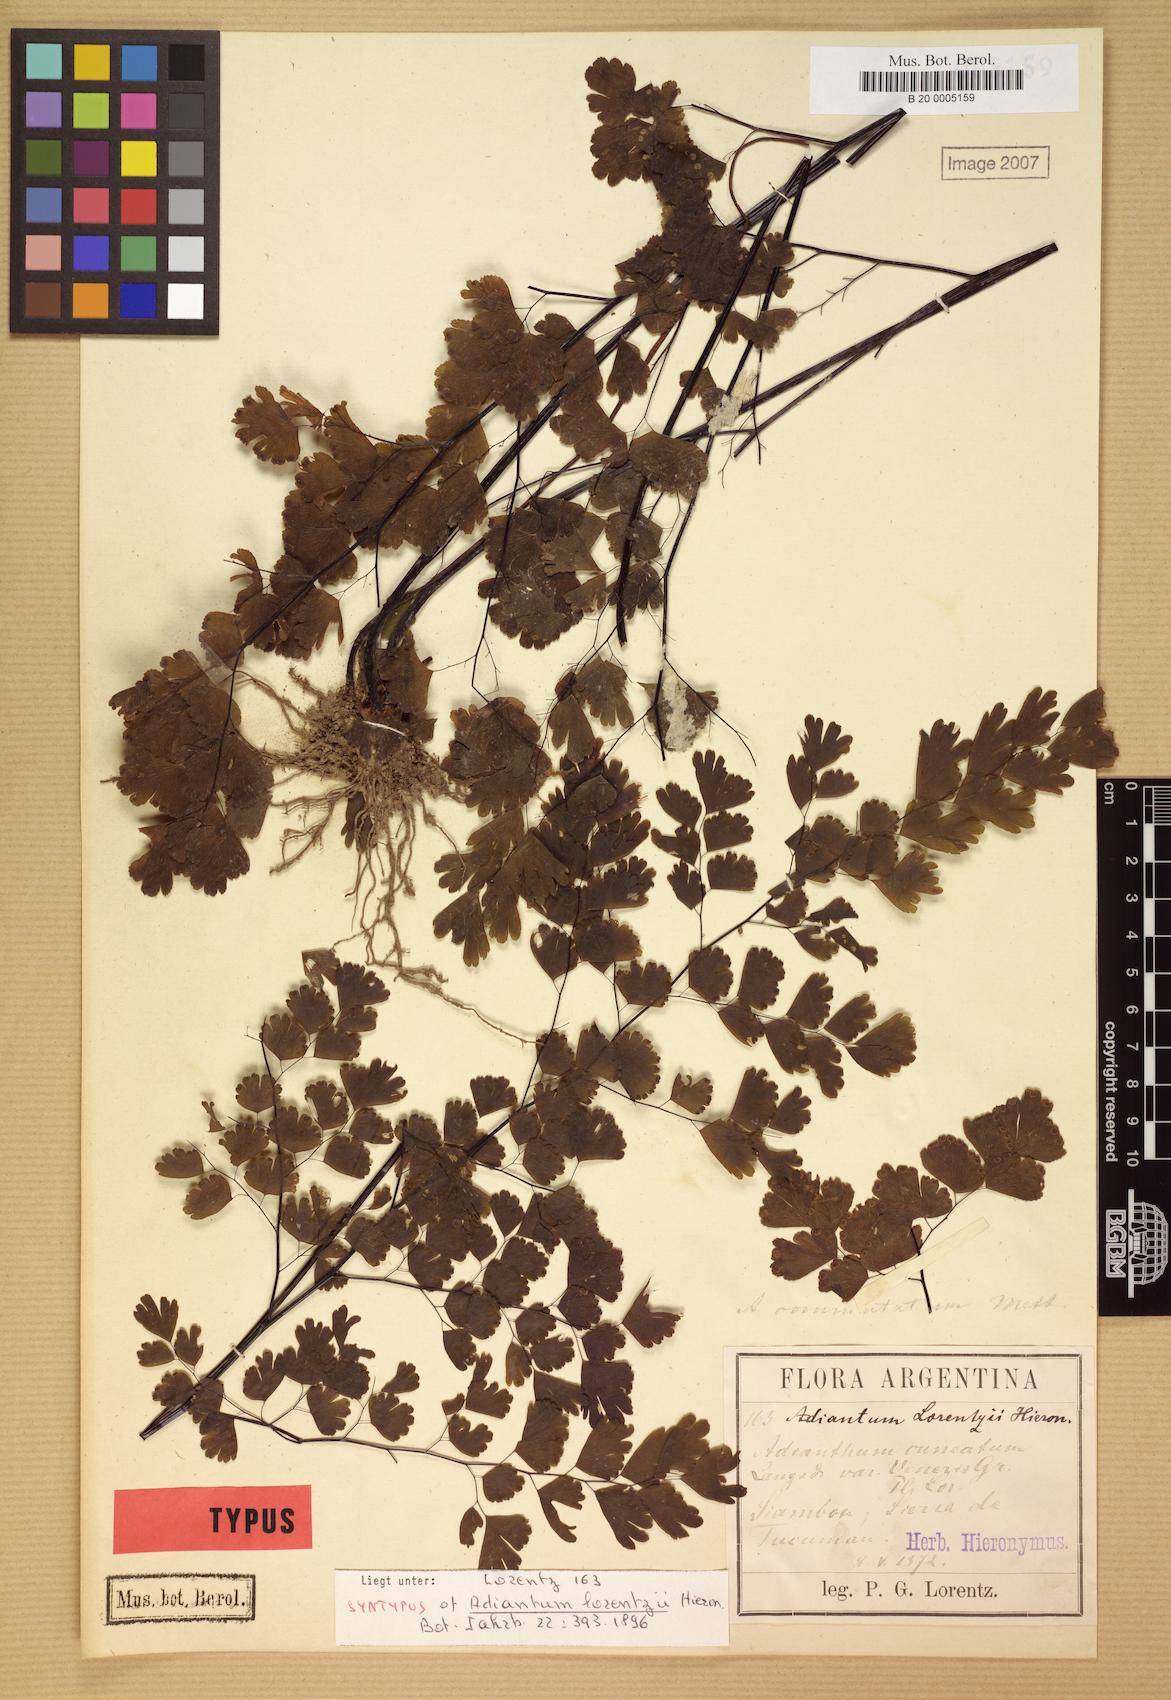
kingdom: Plantae
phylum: Tracheophyta
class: Polypodiopsida
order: Polypodiales
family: Pteridaceae
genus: Adiantum
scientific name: Adiantum lorentzii
